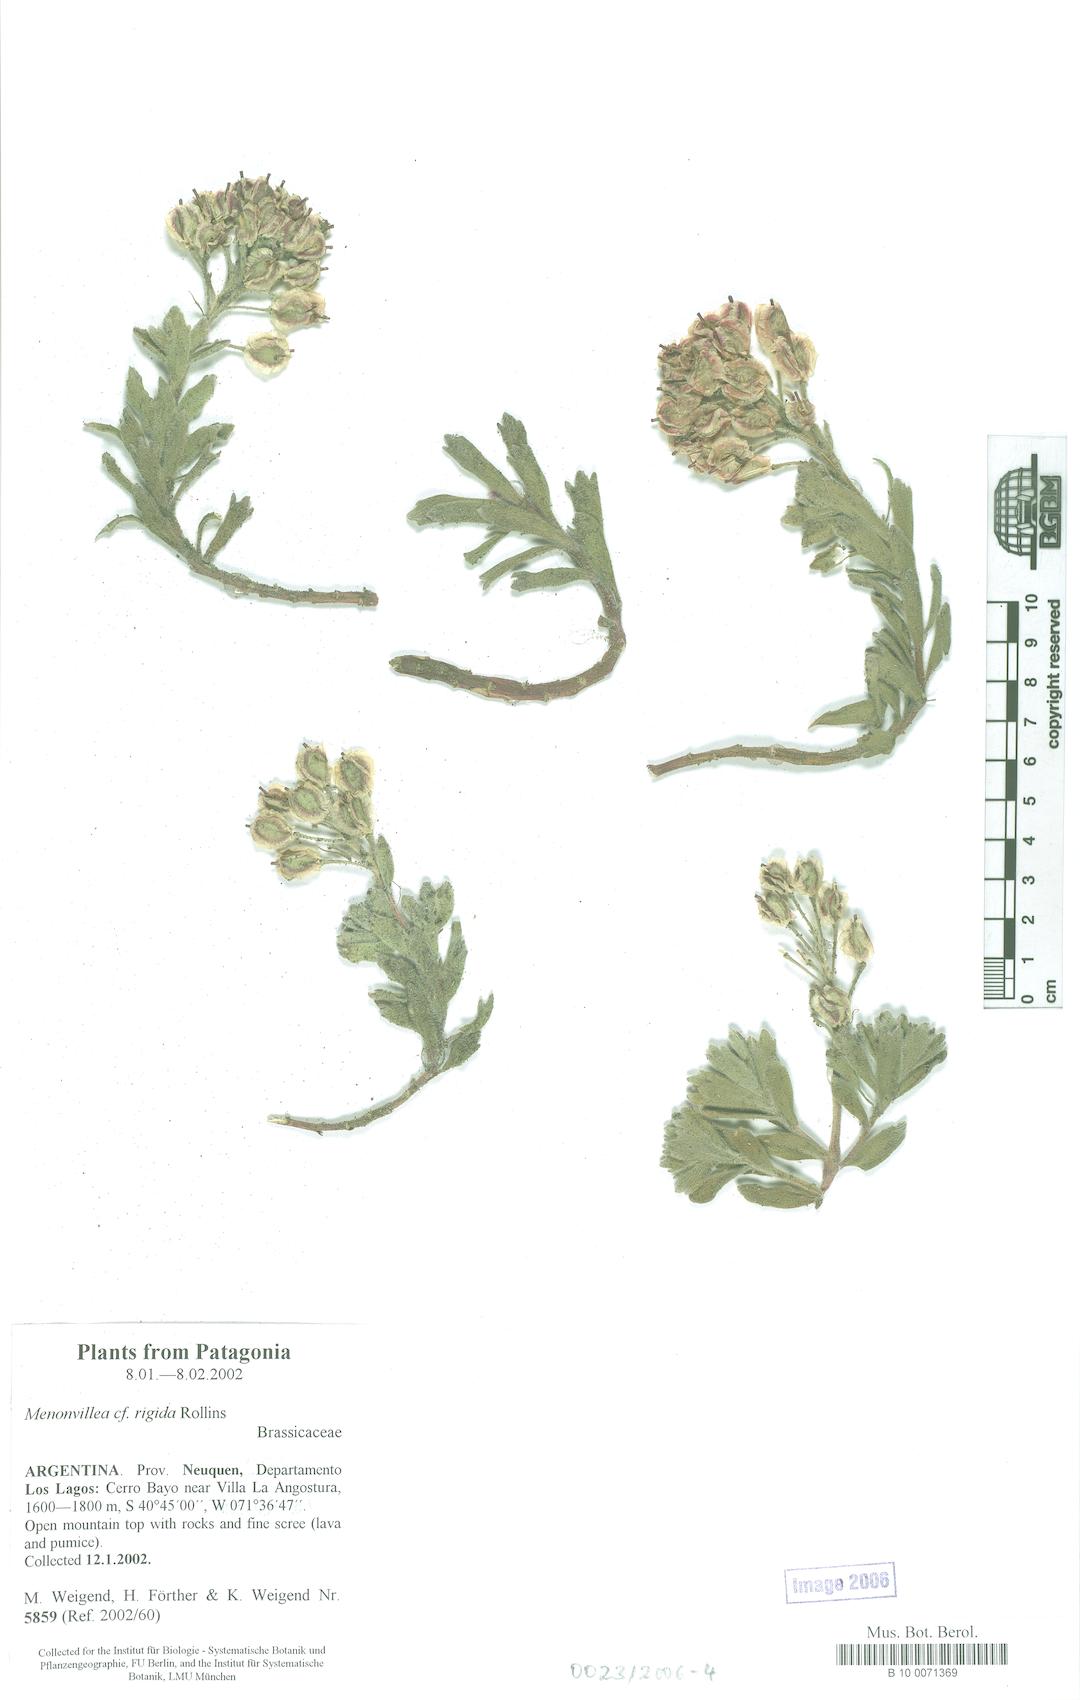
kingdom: Plantae
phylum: Tracheophyta
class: Magnoliopsida
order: Brassicales
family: Brassicaceae
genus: Menonvillea
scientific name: Menonvillea rigida
